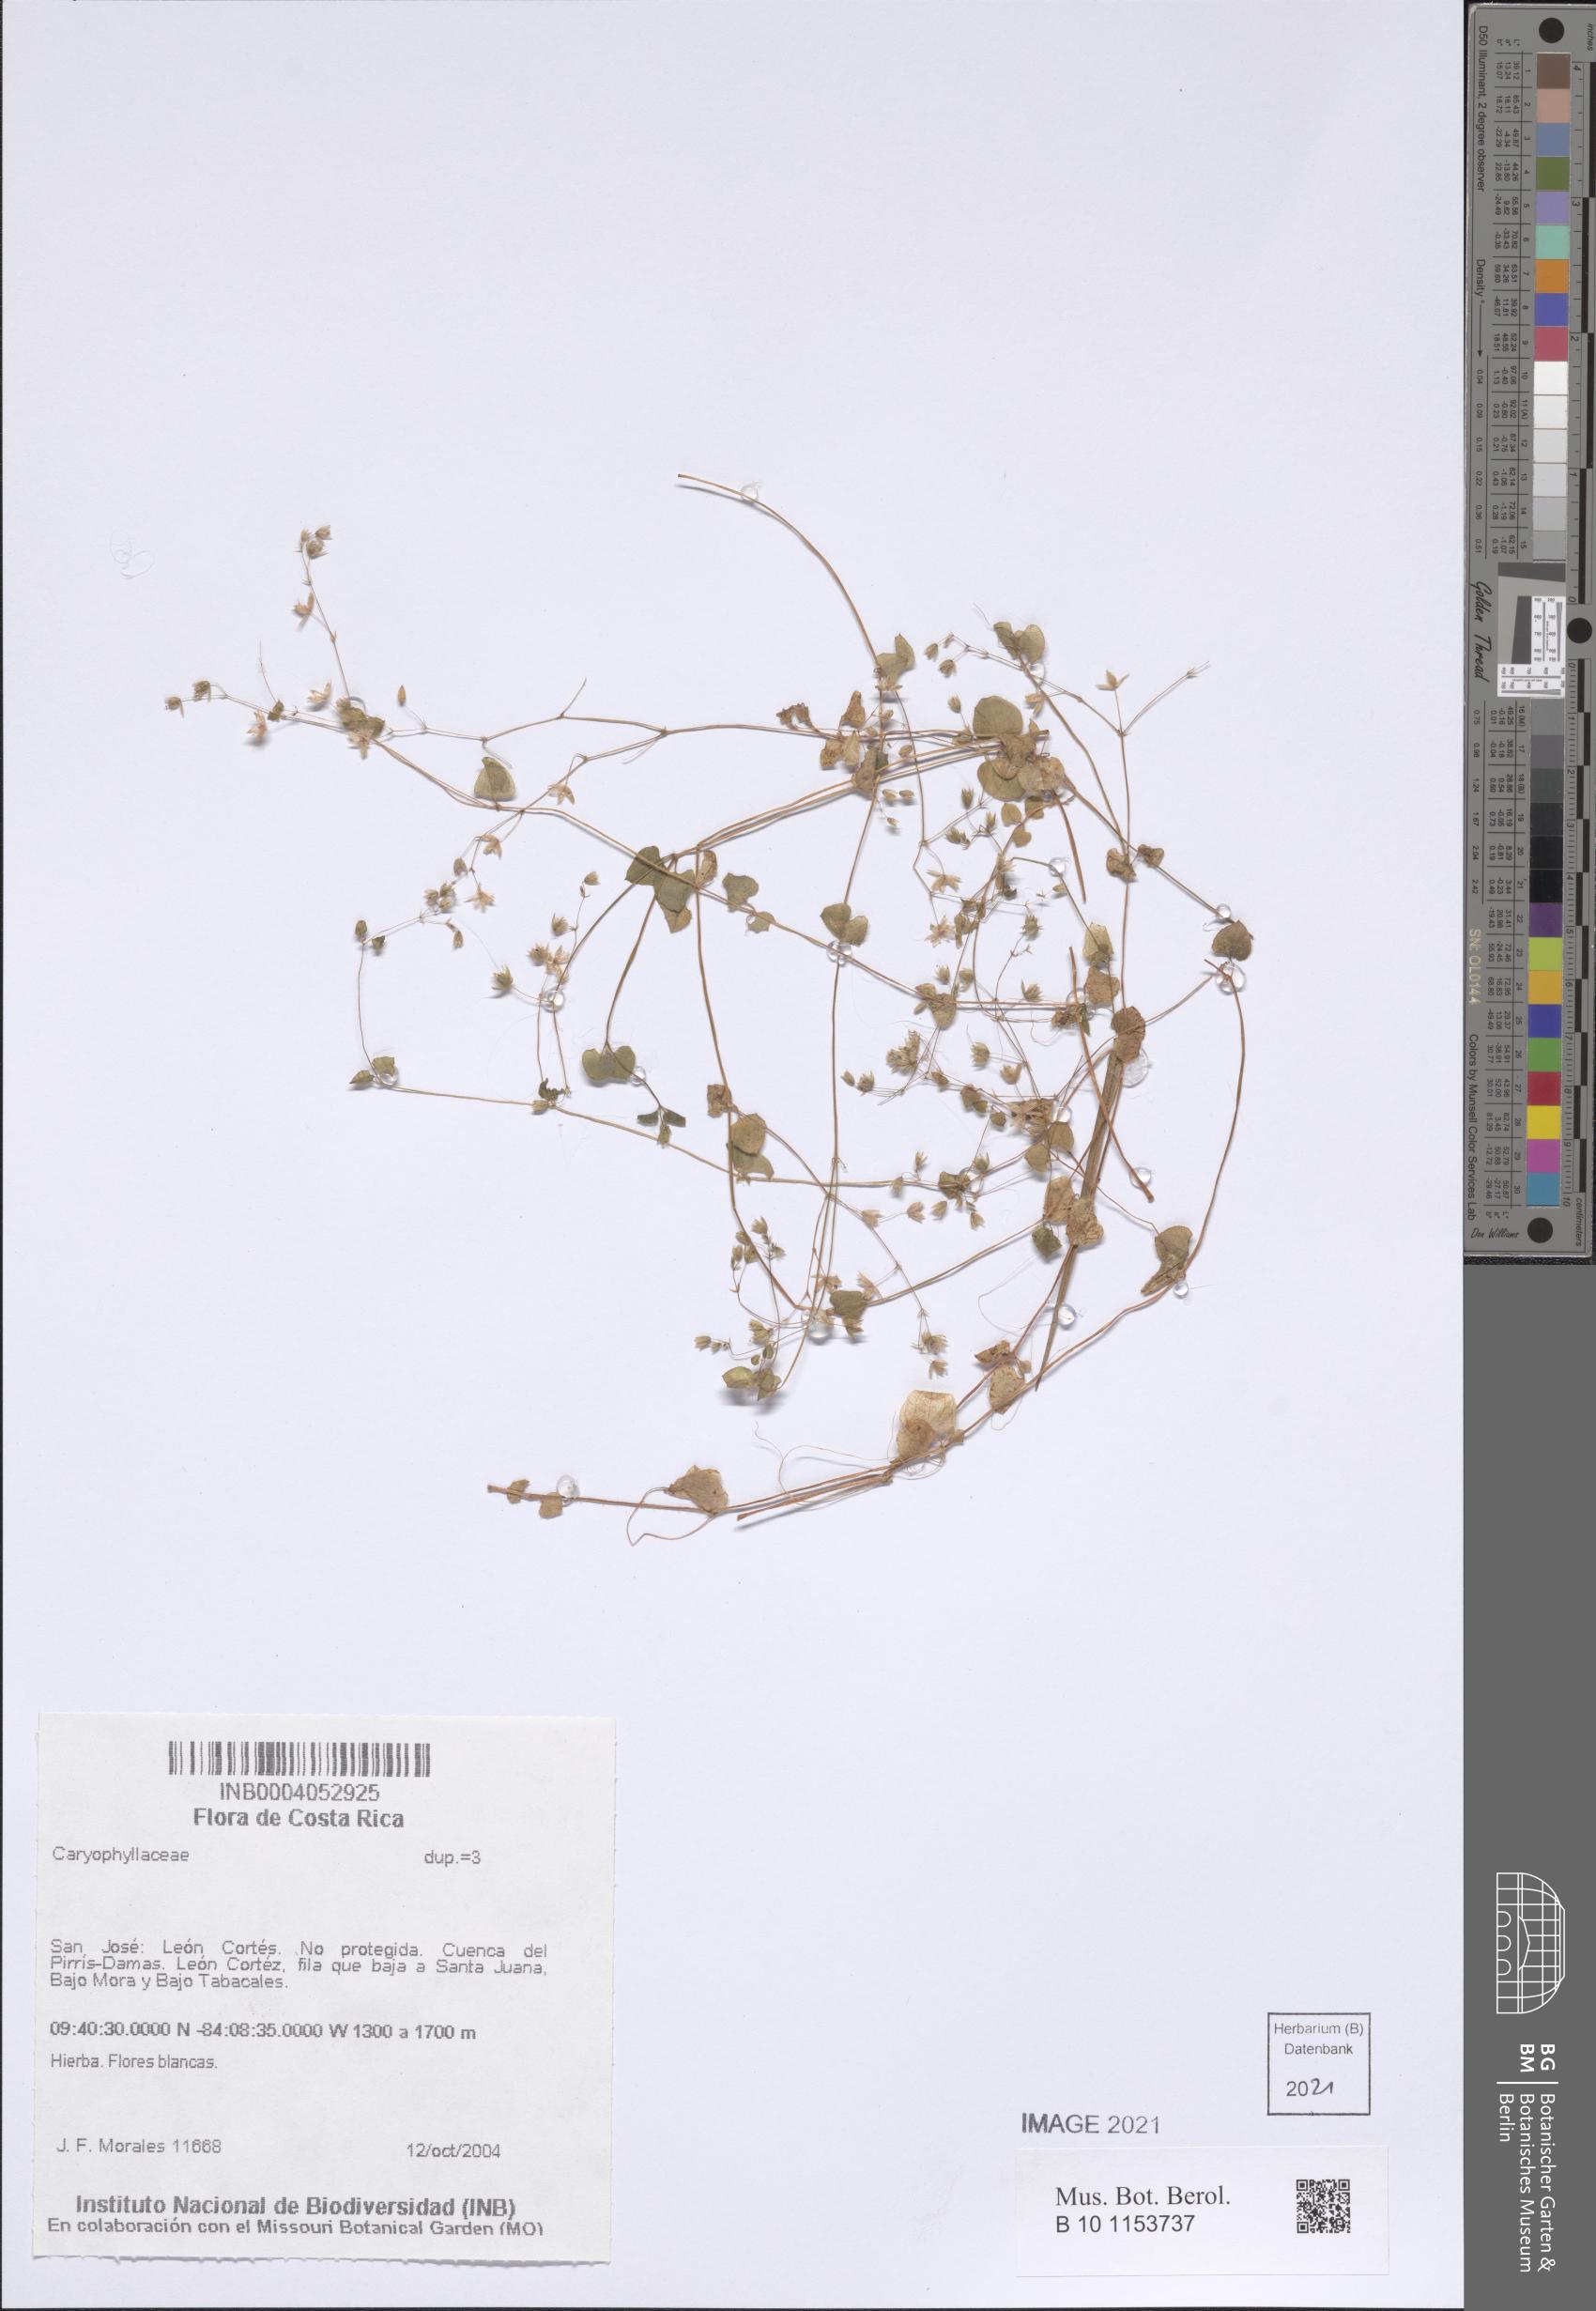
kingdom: Plantae
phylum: Tracheophyta
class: Magnoliopsida
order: Caryophyllales
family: Caryophyllaceae
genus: Drymaria
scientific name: Drymaria villosa
